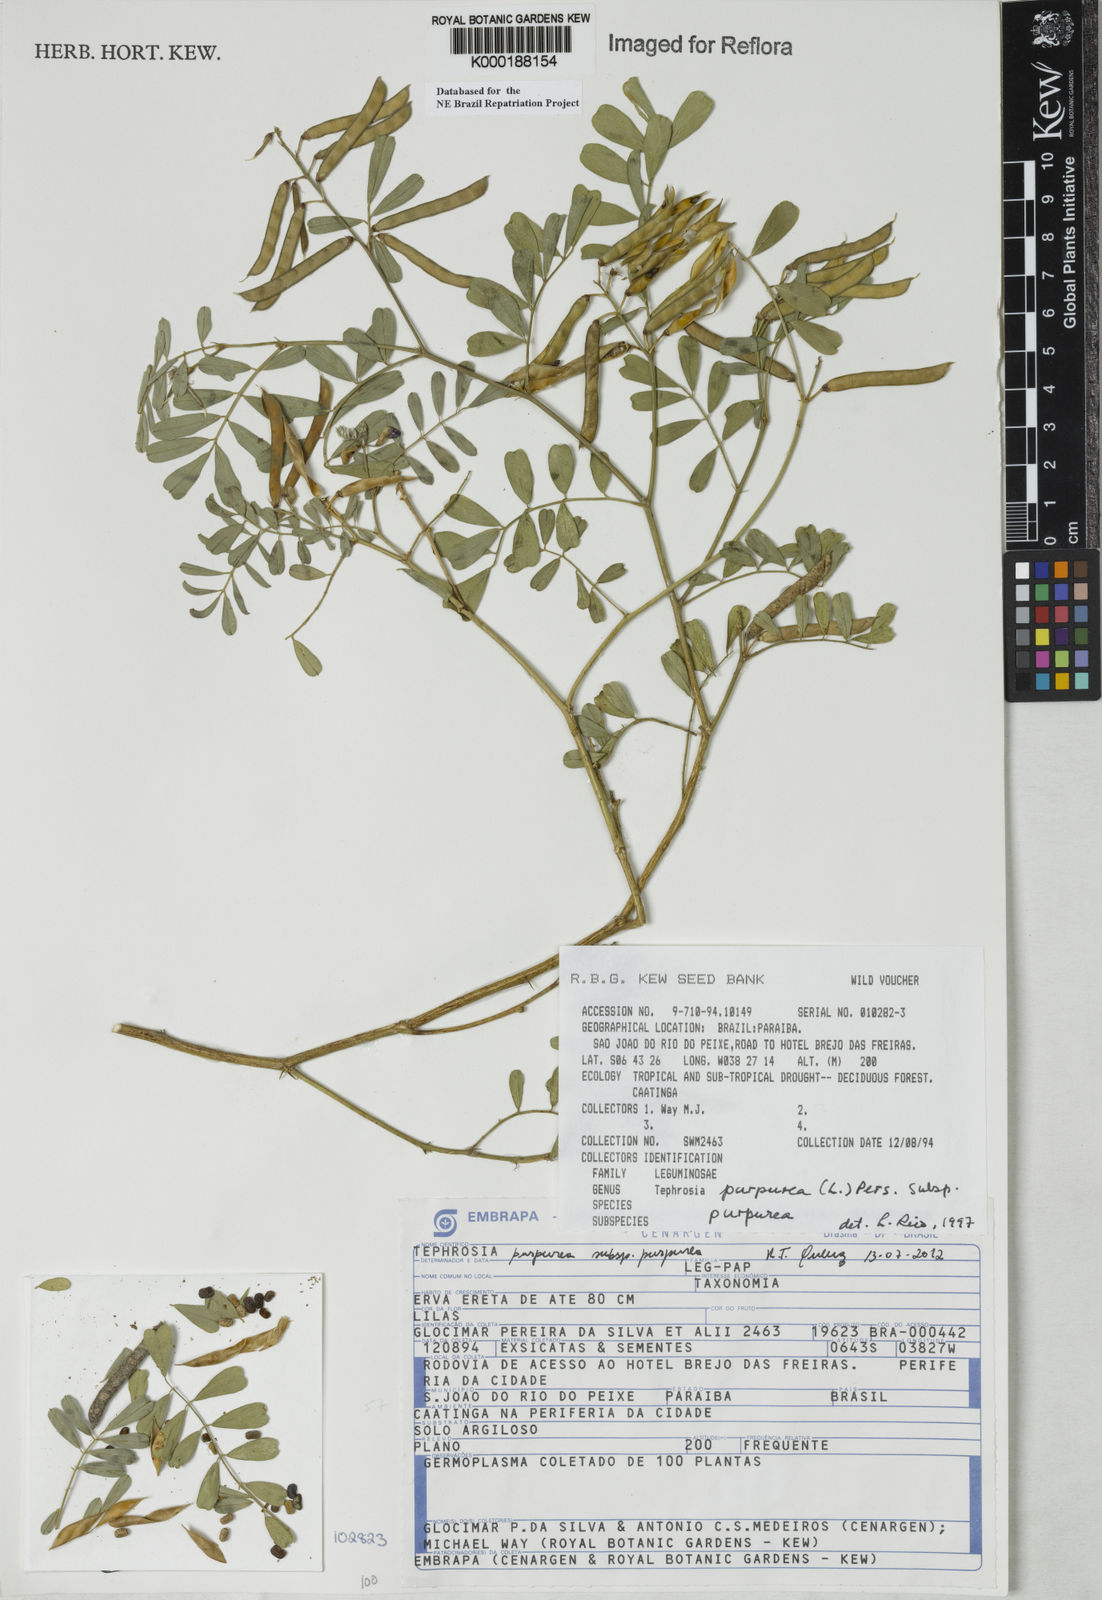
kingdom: Plantae
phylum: Tracheophyta
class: Magnoliopsida
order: Fabales
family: Fabaceae
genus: Tephrosia
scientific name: Tephrosia purpurea
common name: Fishpoison
